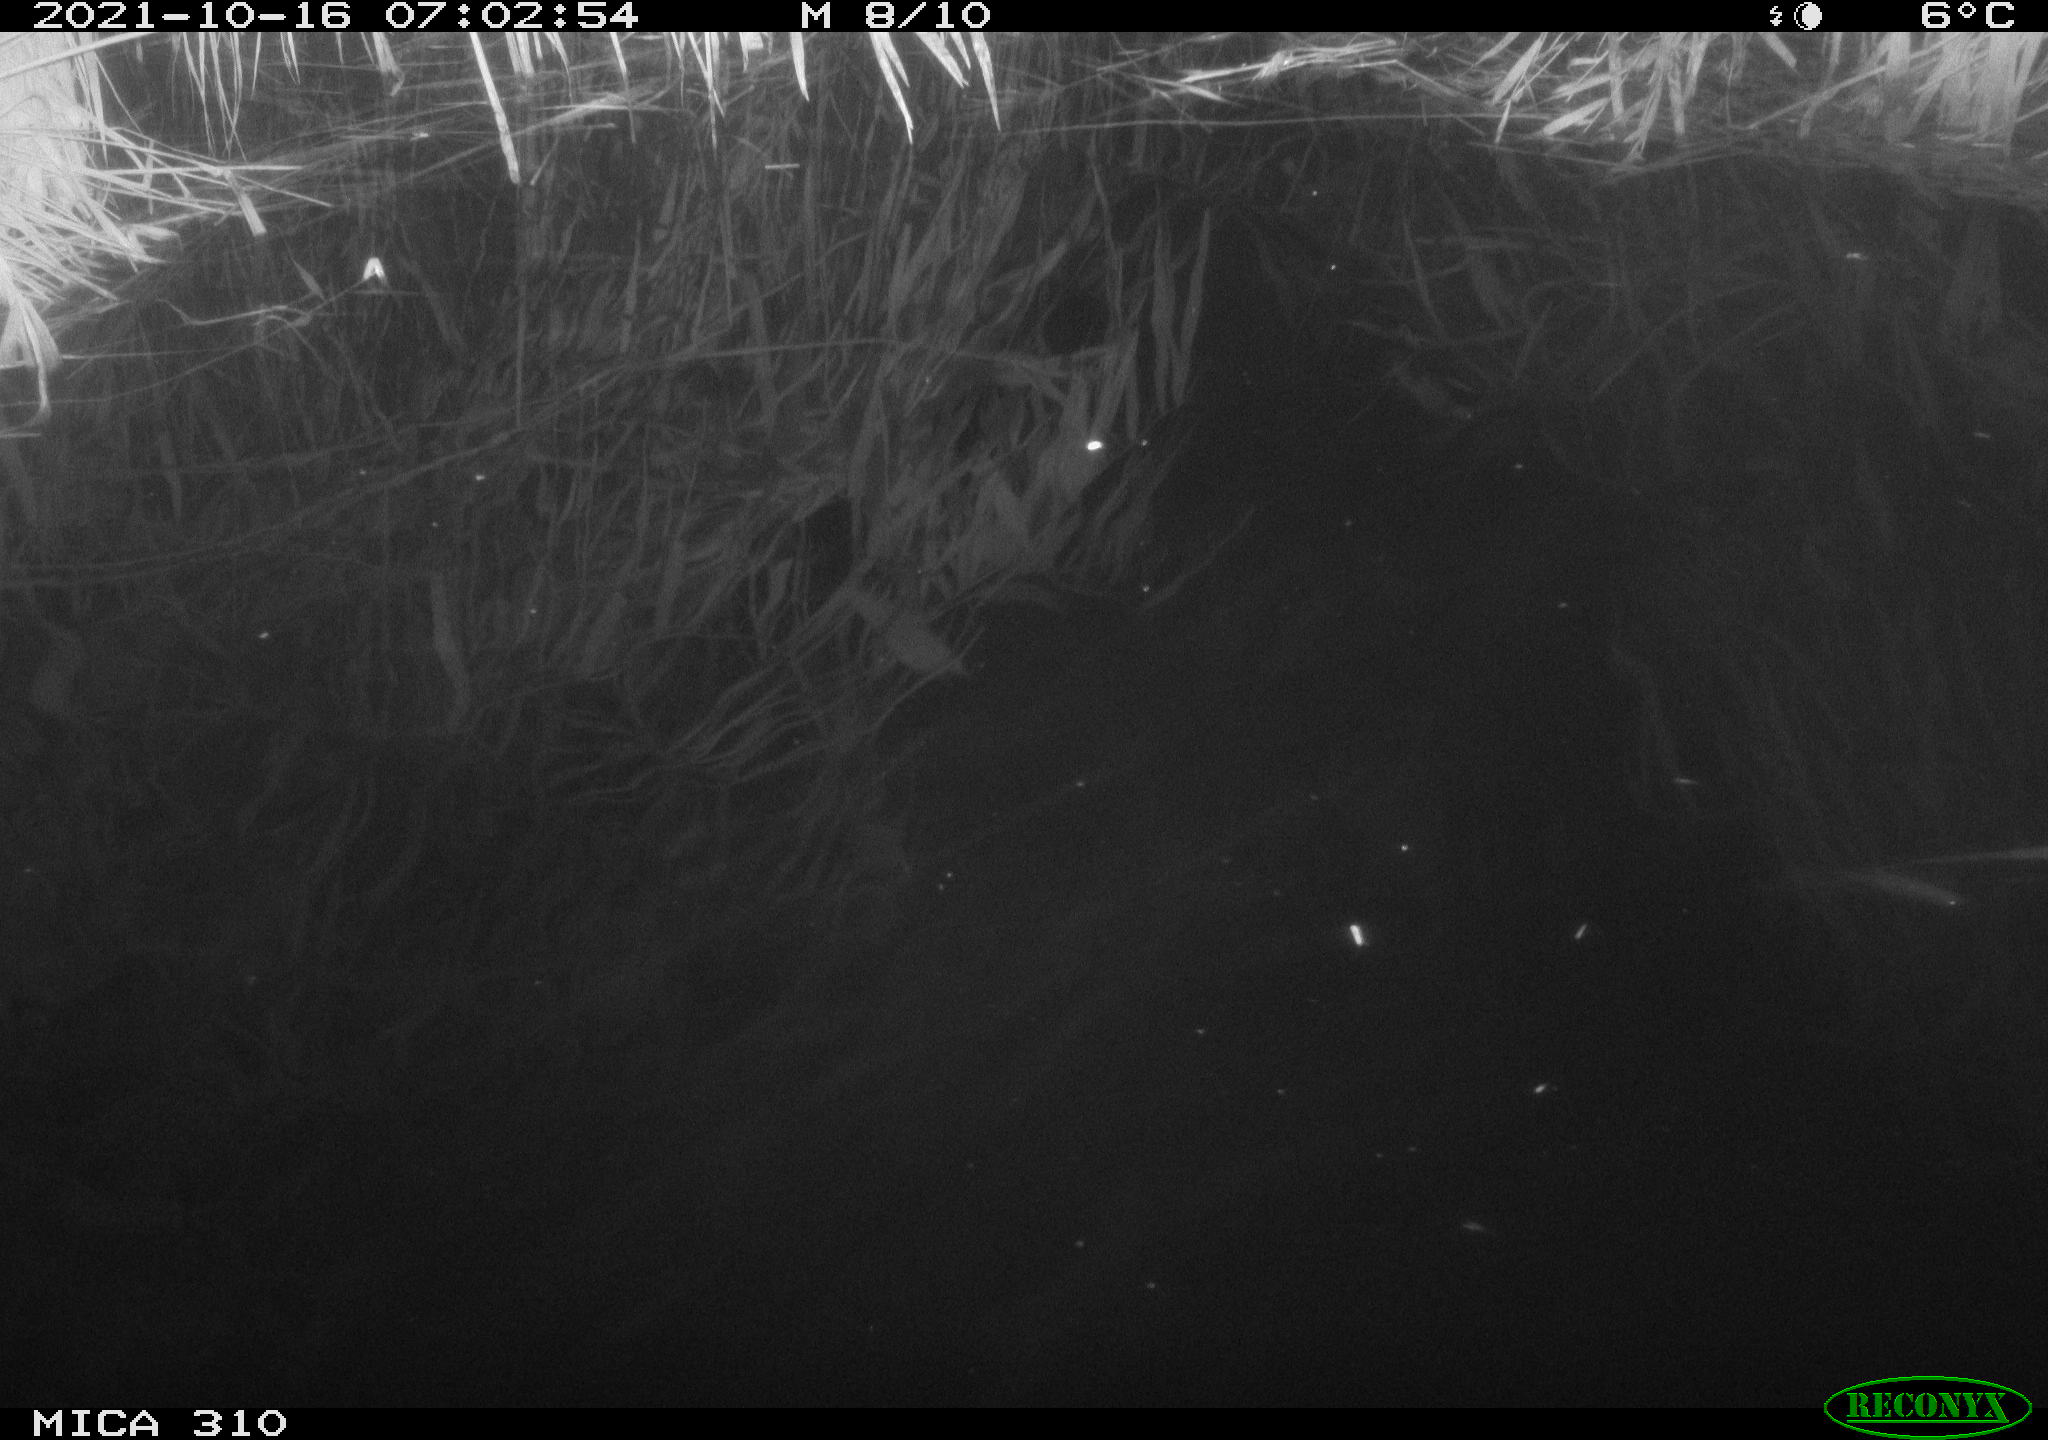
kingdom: Animalia
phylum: Chordata
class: Mammalia
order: Rodentia
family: Muridae
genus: Rattus
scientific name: Rattus norvegicus
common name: Brown rat
